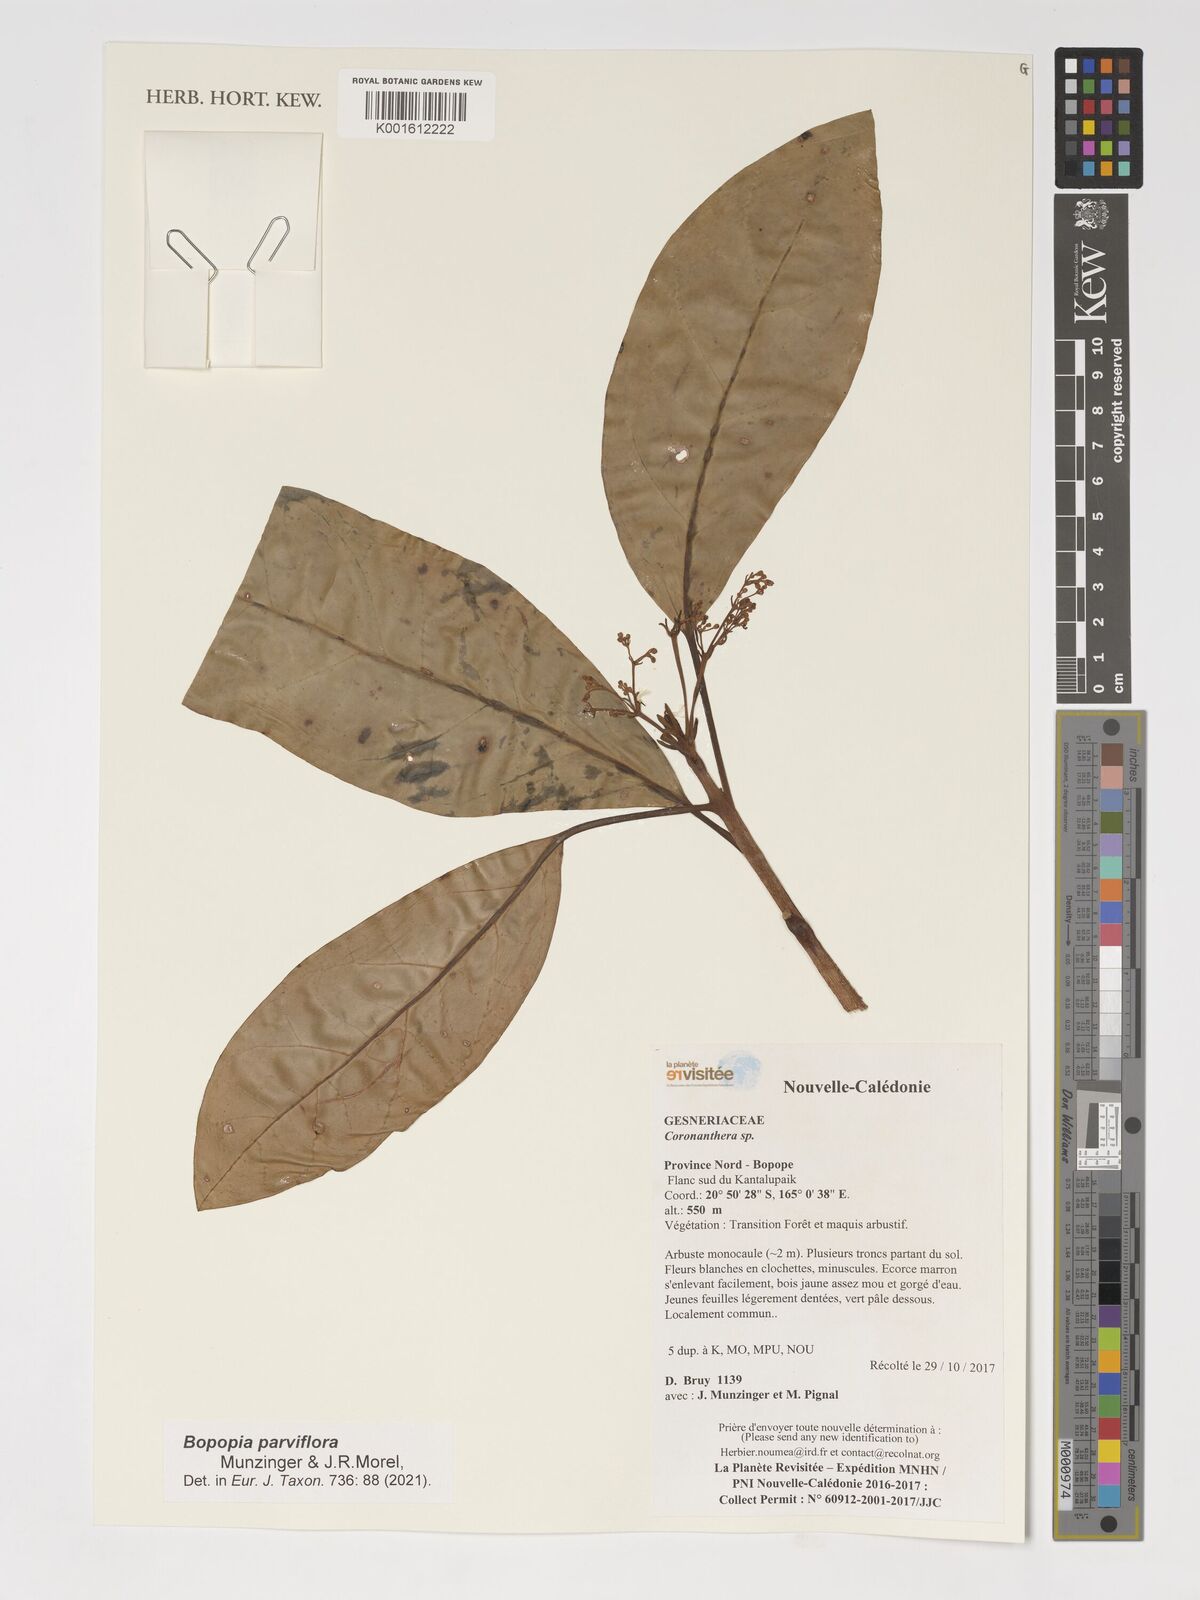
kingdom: Plantae
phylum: Tracheophyta
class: Magnoliopsida
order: Lamiales
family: Gesneriaceae
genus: Coronanthera
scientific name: Coronanthera
